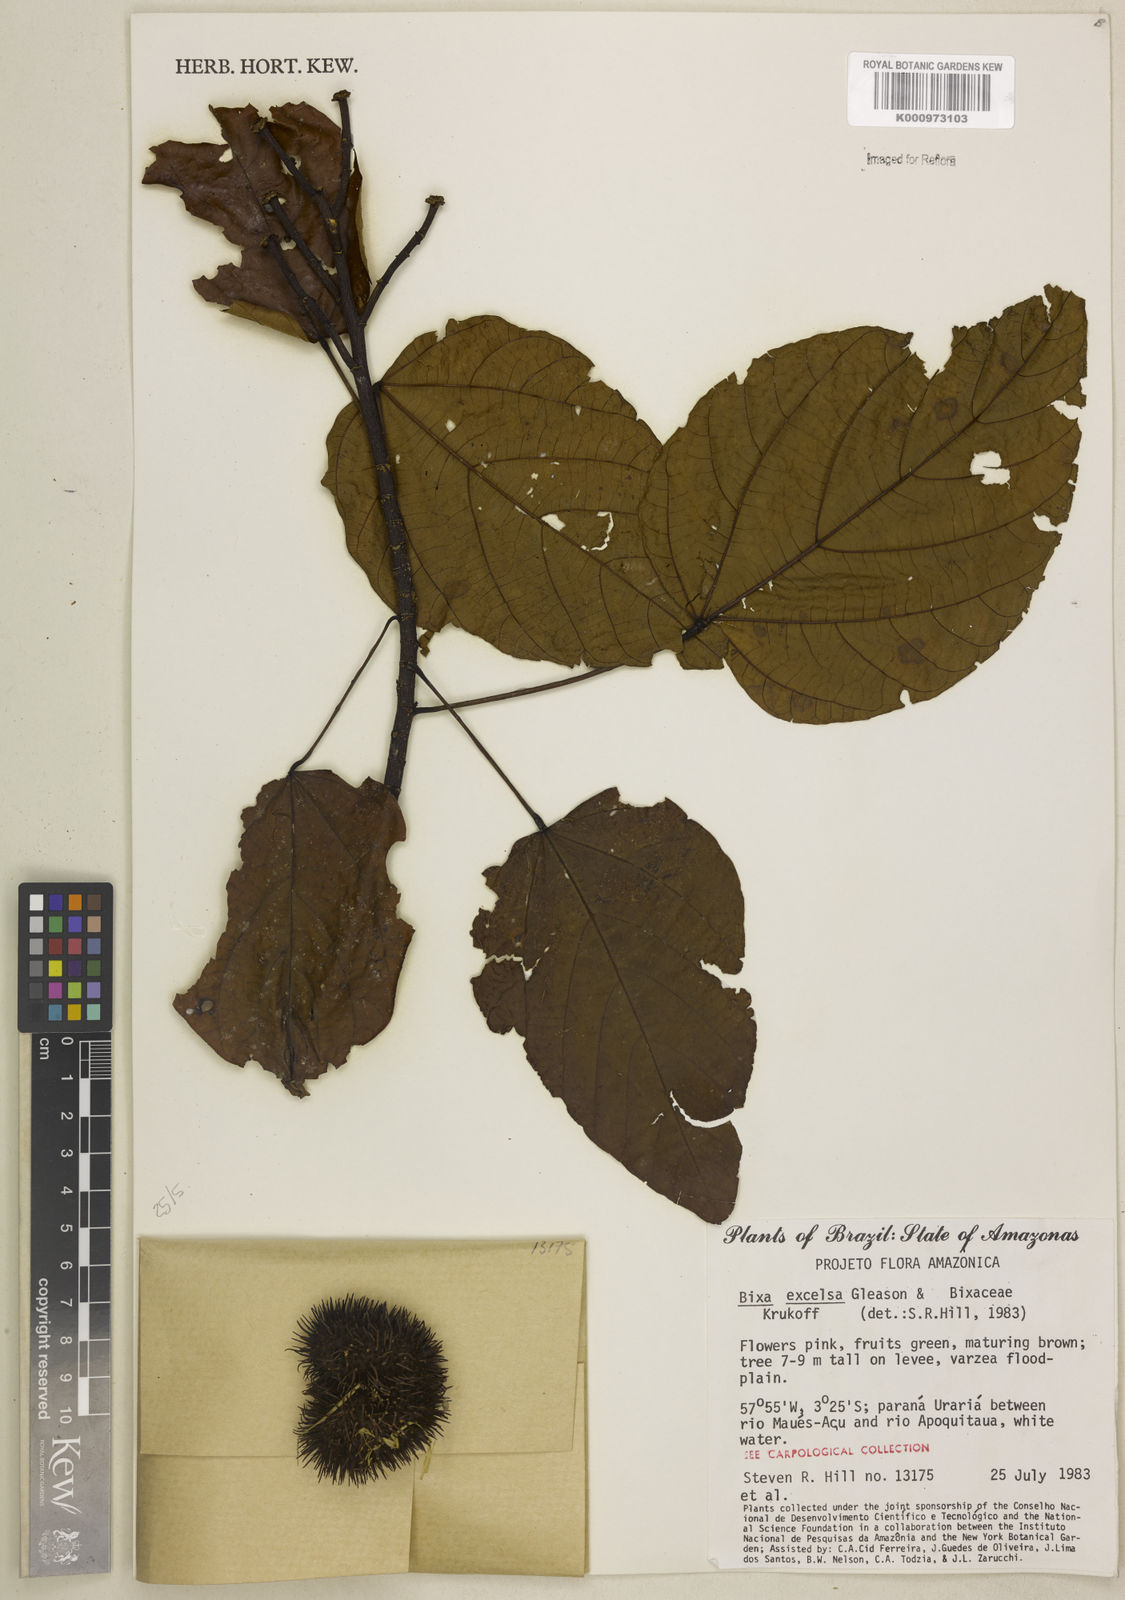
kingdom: Plantae
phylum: Tracheophyta
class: Magnoliopsida
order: Malvales
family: Bixaceae
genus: Bixa
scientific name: Bixa excelsa
